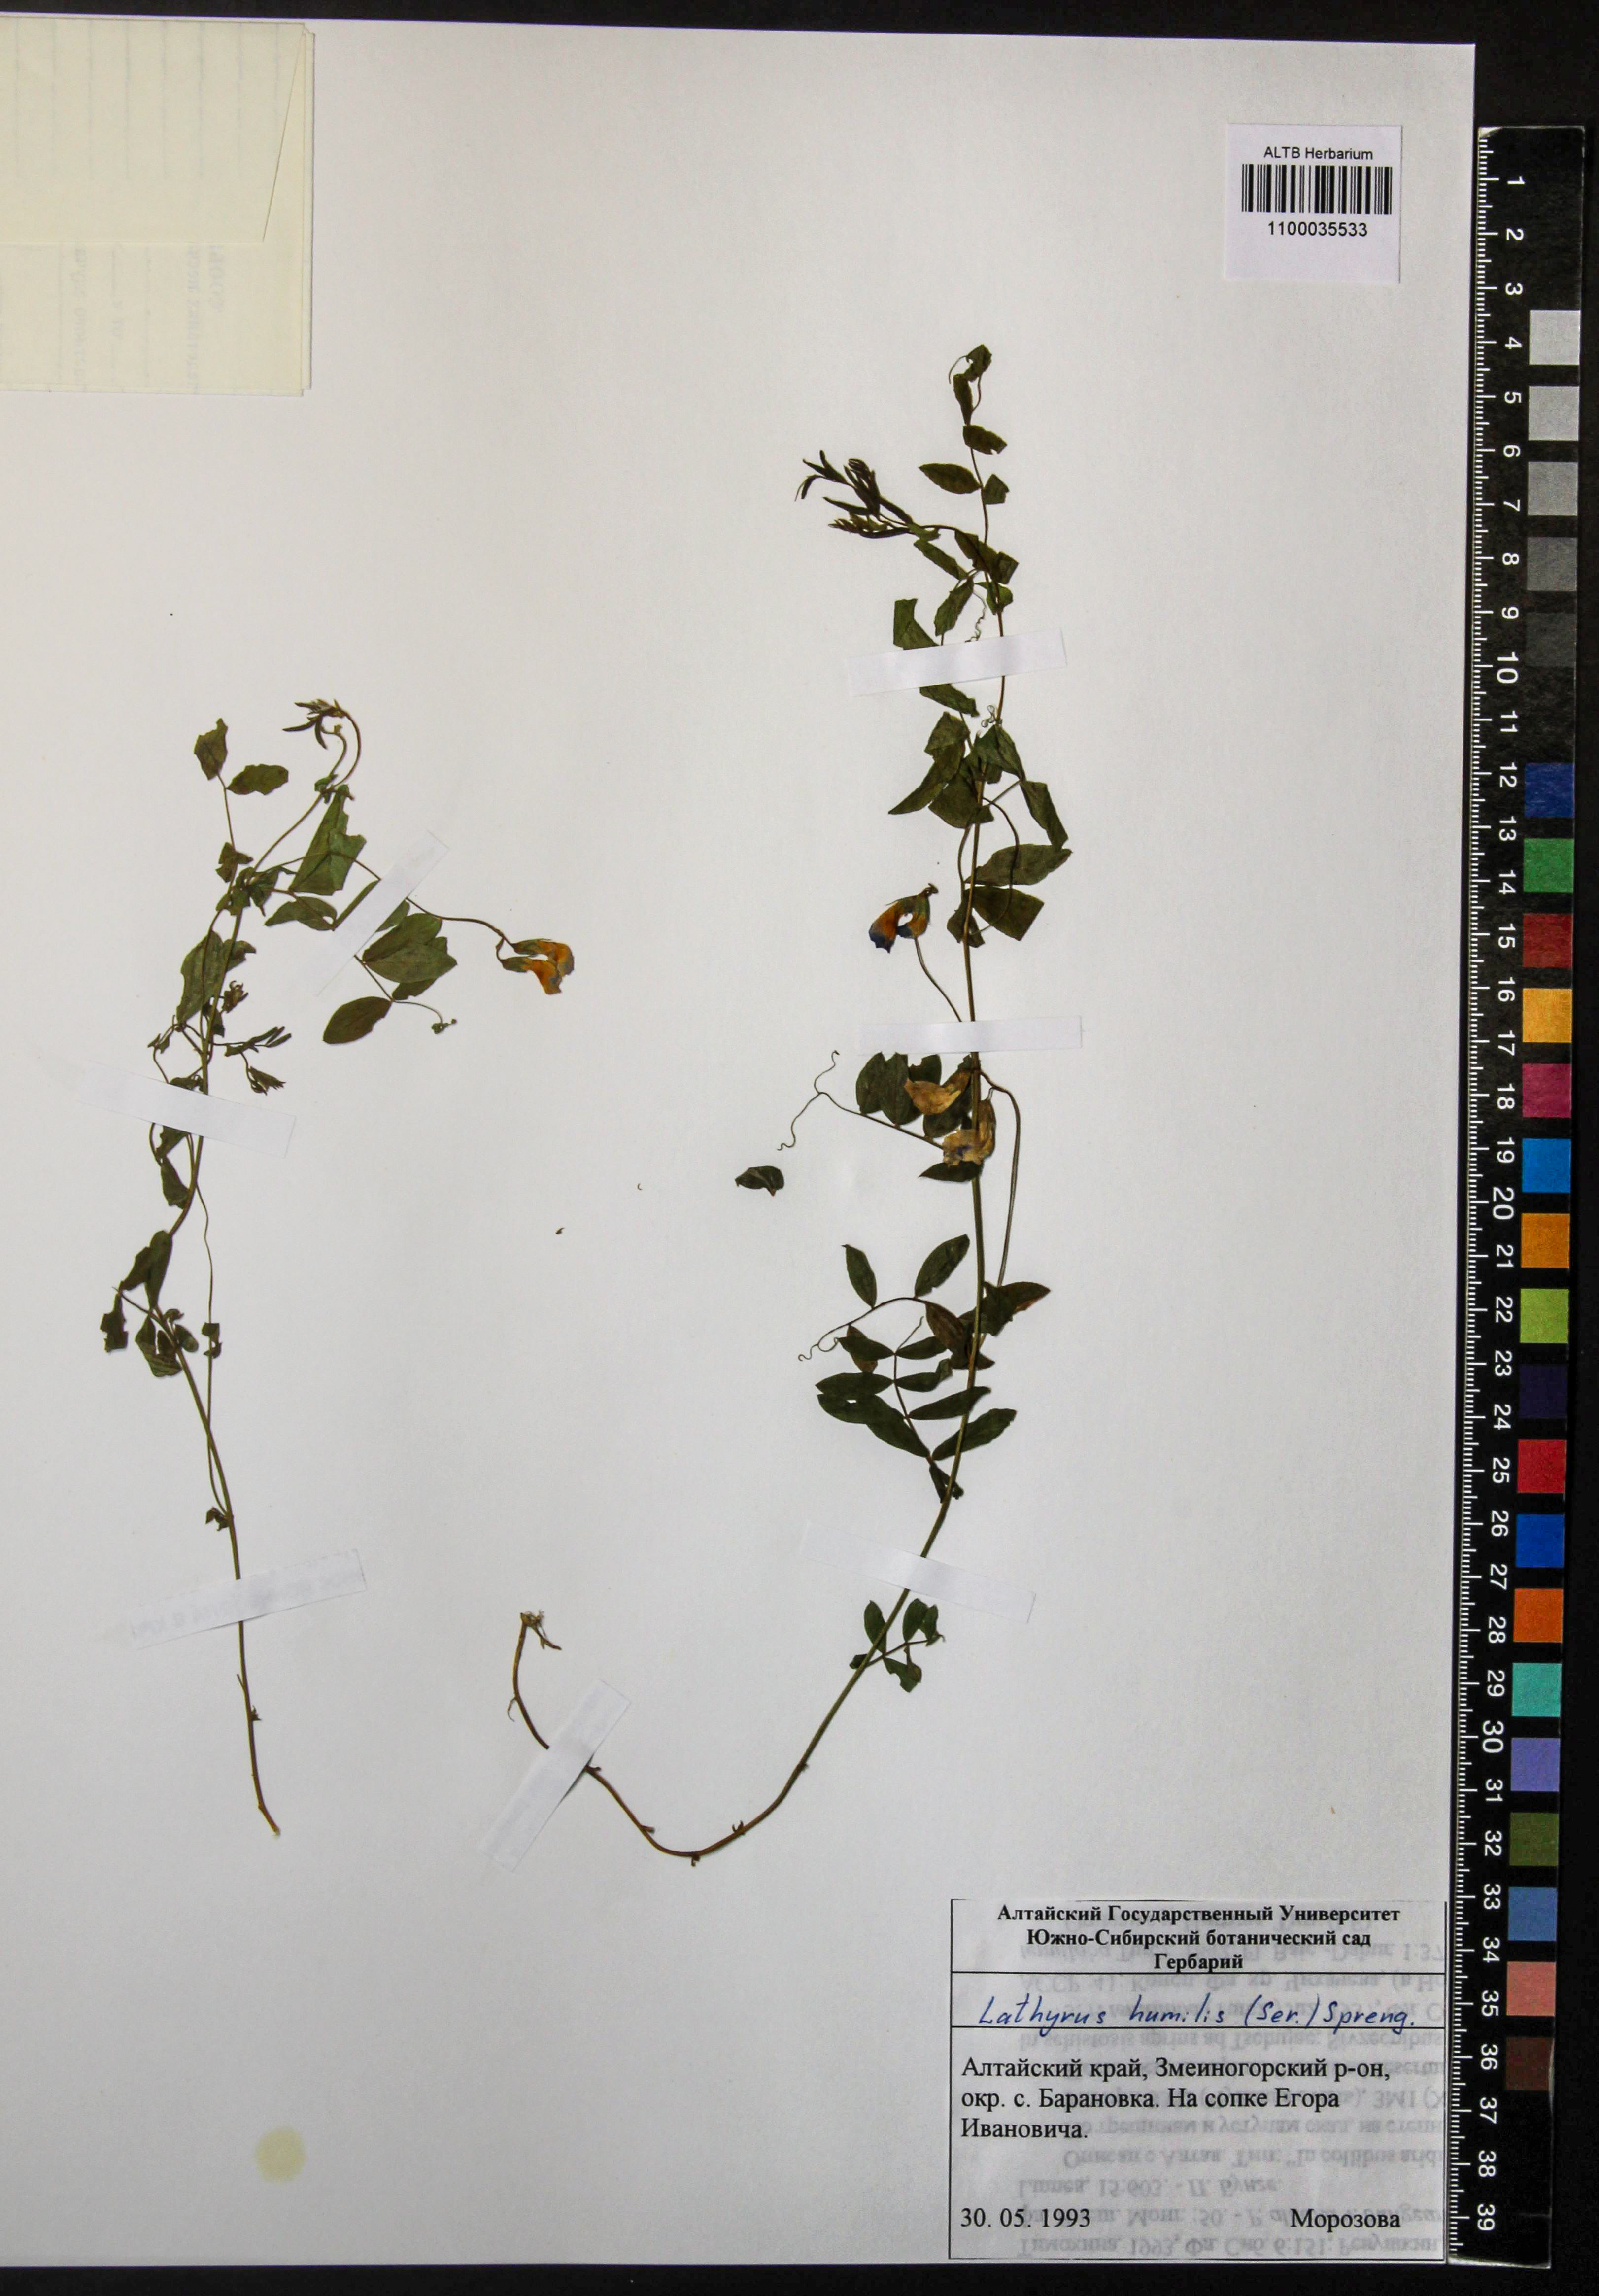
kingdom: Plantae
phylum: Tracheophyta
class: Magnoliopsida
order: Fabales
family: Fabaceae
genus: Lathyrus
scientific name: Lathyrus humilis
